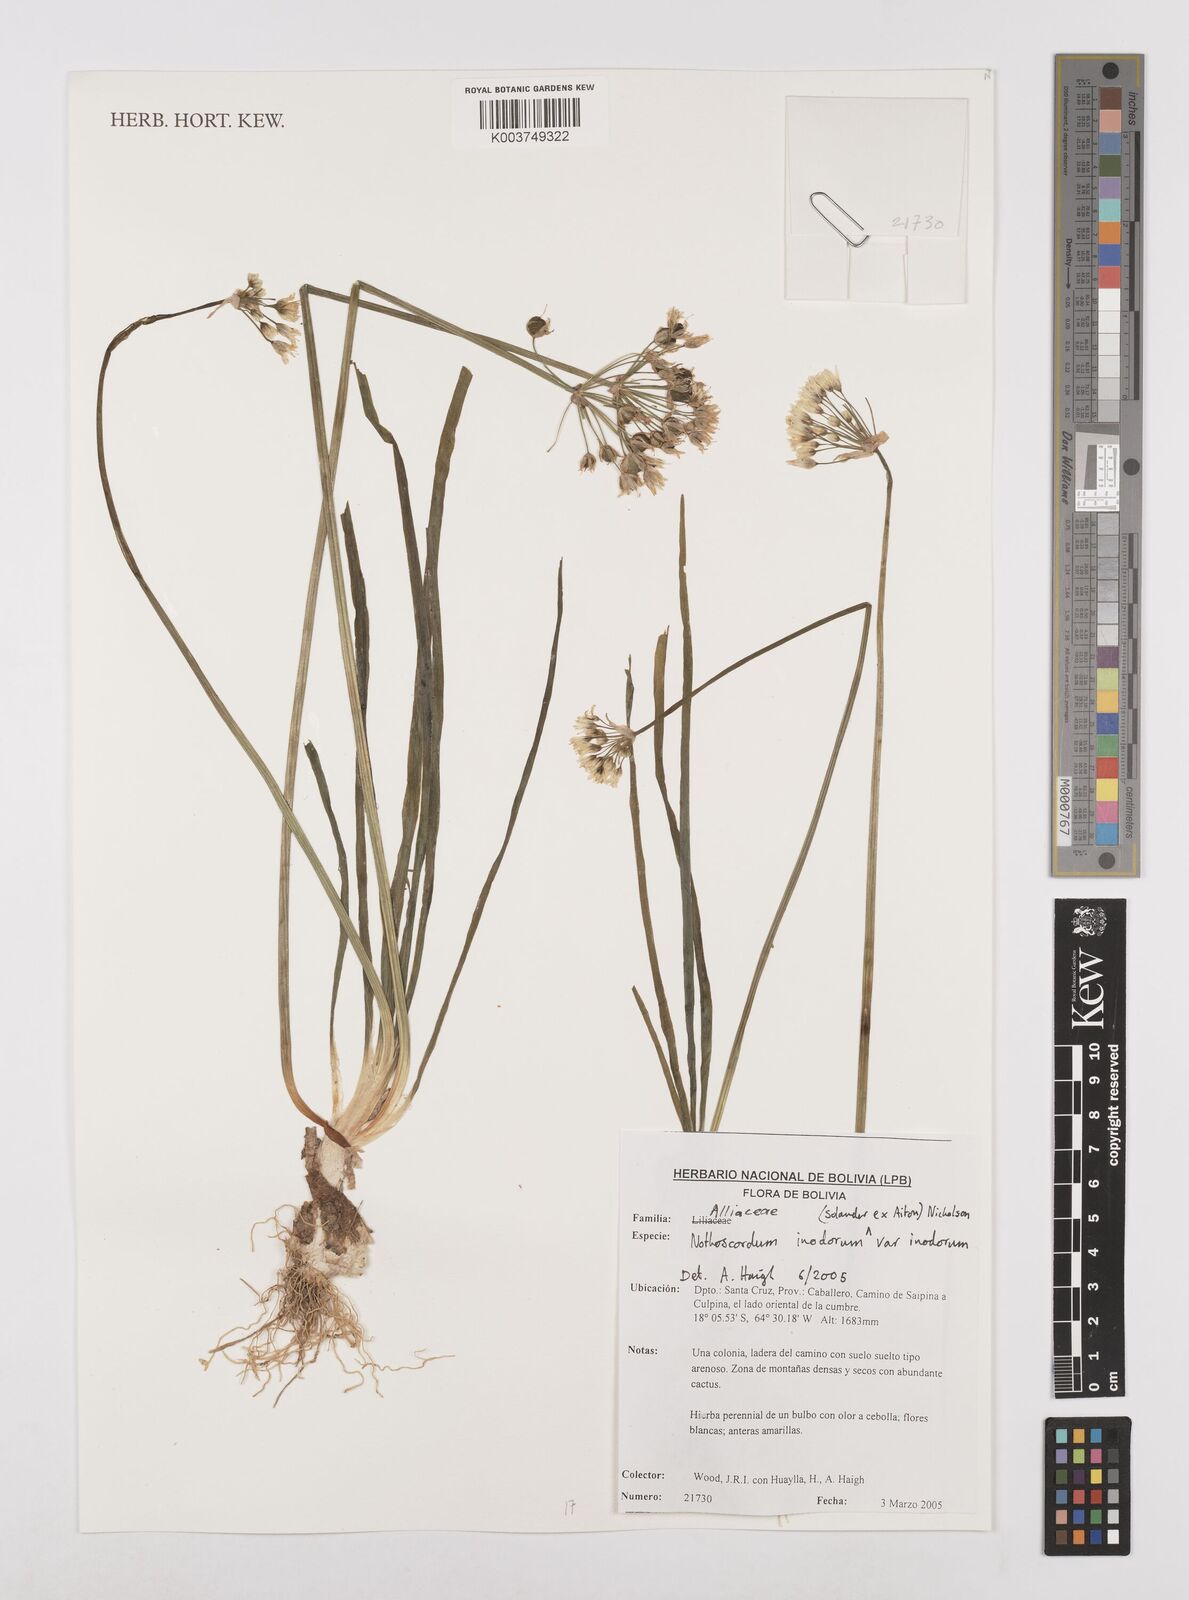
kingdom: Plantae
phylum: Tracheophyta
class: Liliopsida
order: Asparagales
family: Amaryllidaceae
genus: Allium
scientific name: Allium neapolitanum
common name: Neapolitan garlic
